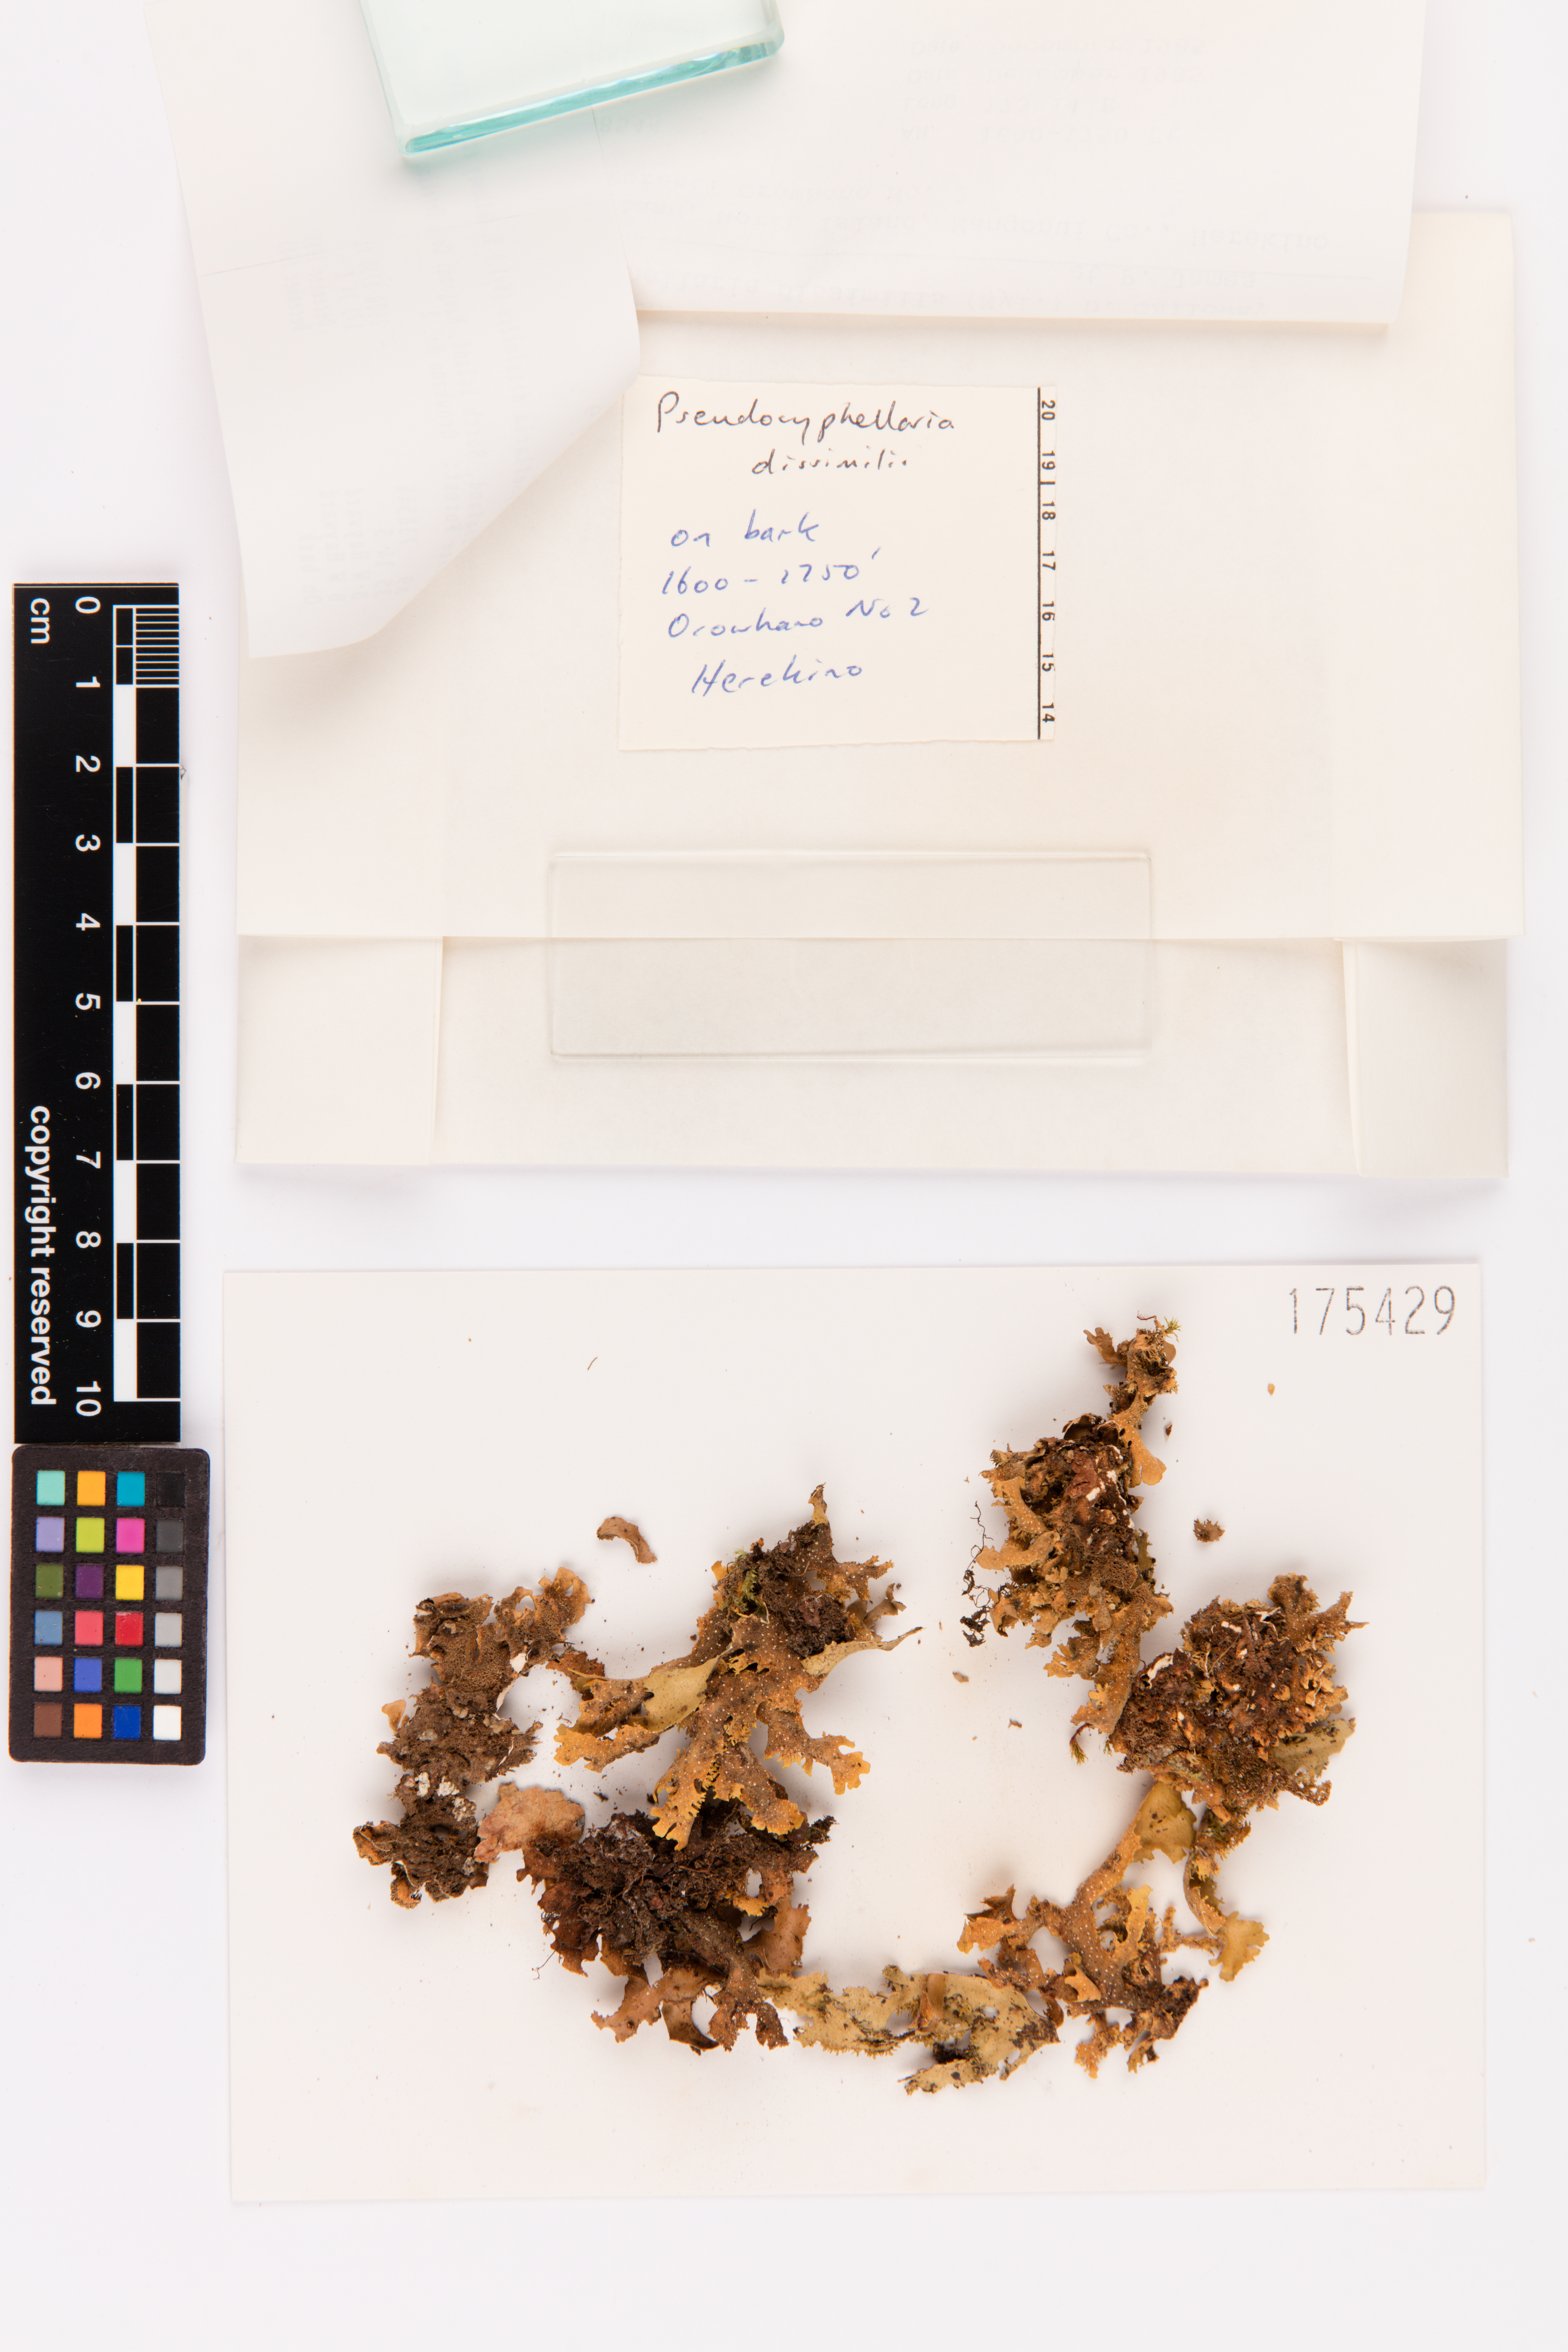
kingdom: Fungi
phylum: Ascomycota
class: Lecanoromycetes
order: Peltigerales
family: Lobariaceae
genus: Pseudocyphellaria
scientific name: Pseudocyphellaria dissimilis
